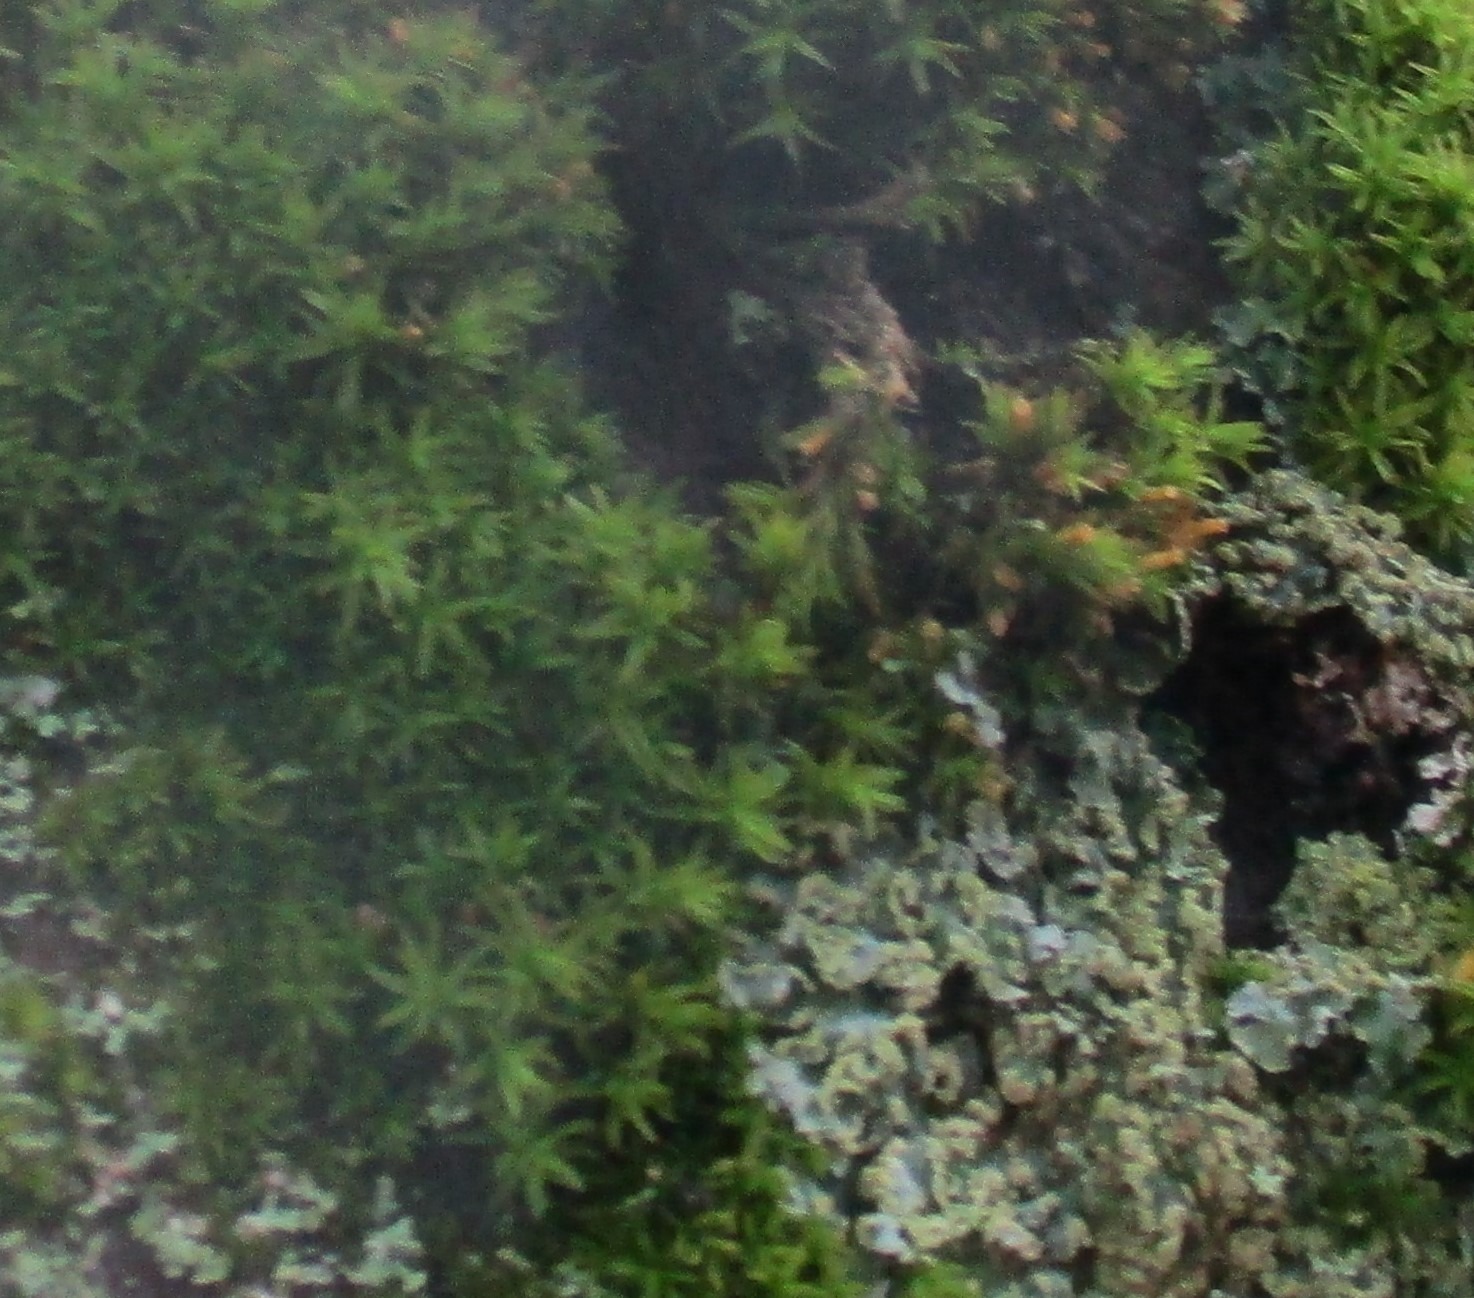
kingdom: Plantae
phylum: Bryophyta
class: Bryopsida
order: Orthotrichales
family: Orthotrichaceae
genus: Orthotrichum
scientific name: Orthotrichum
